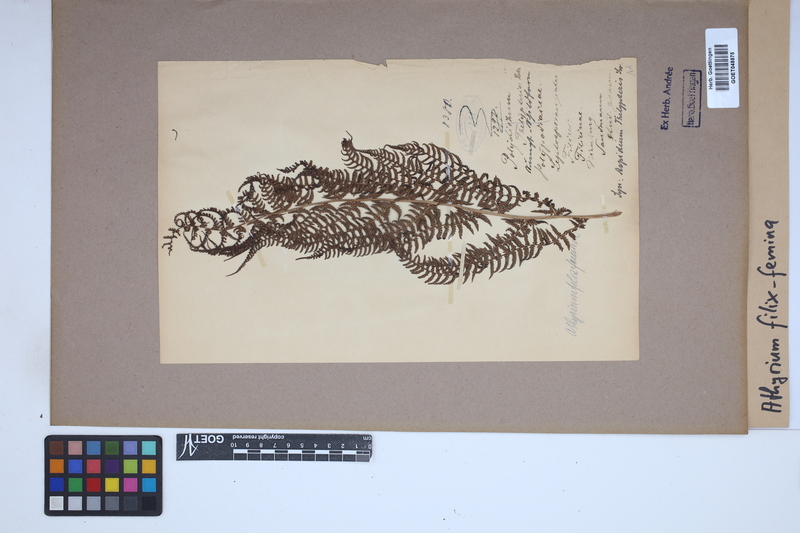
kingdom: Plantae
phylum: Tracheophyta
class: Polypodiopsida
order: Polypodiales
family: Athyriaceae
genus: Athyrium
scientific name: Athyrium filix-femina
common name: Lady fern
